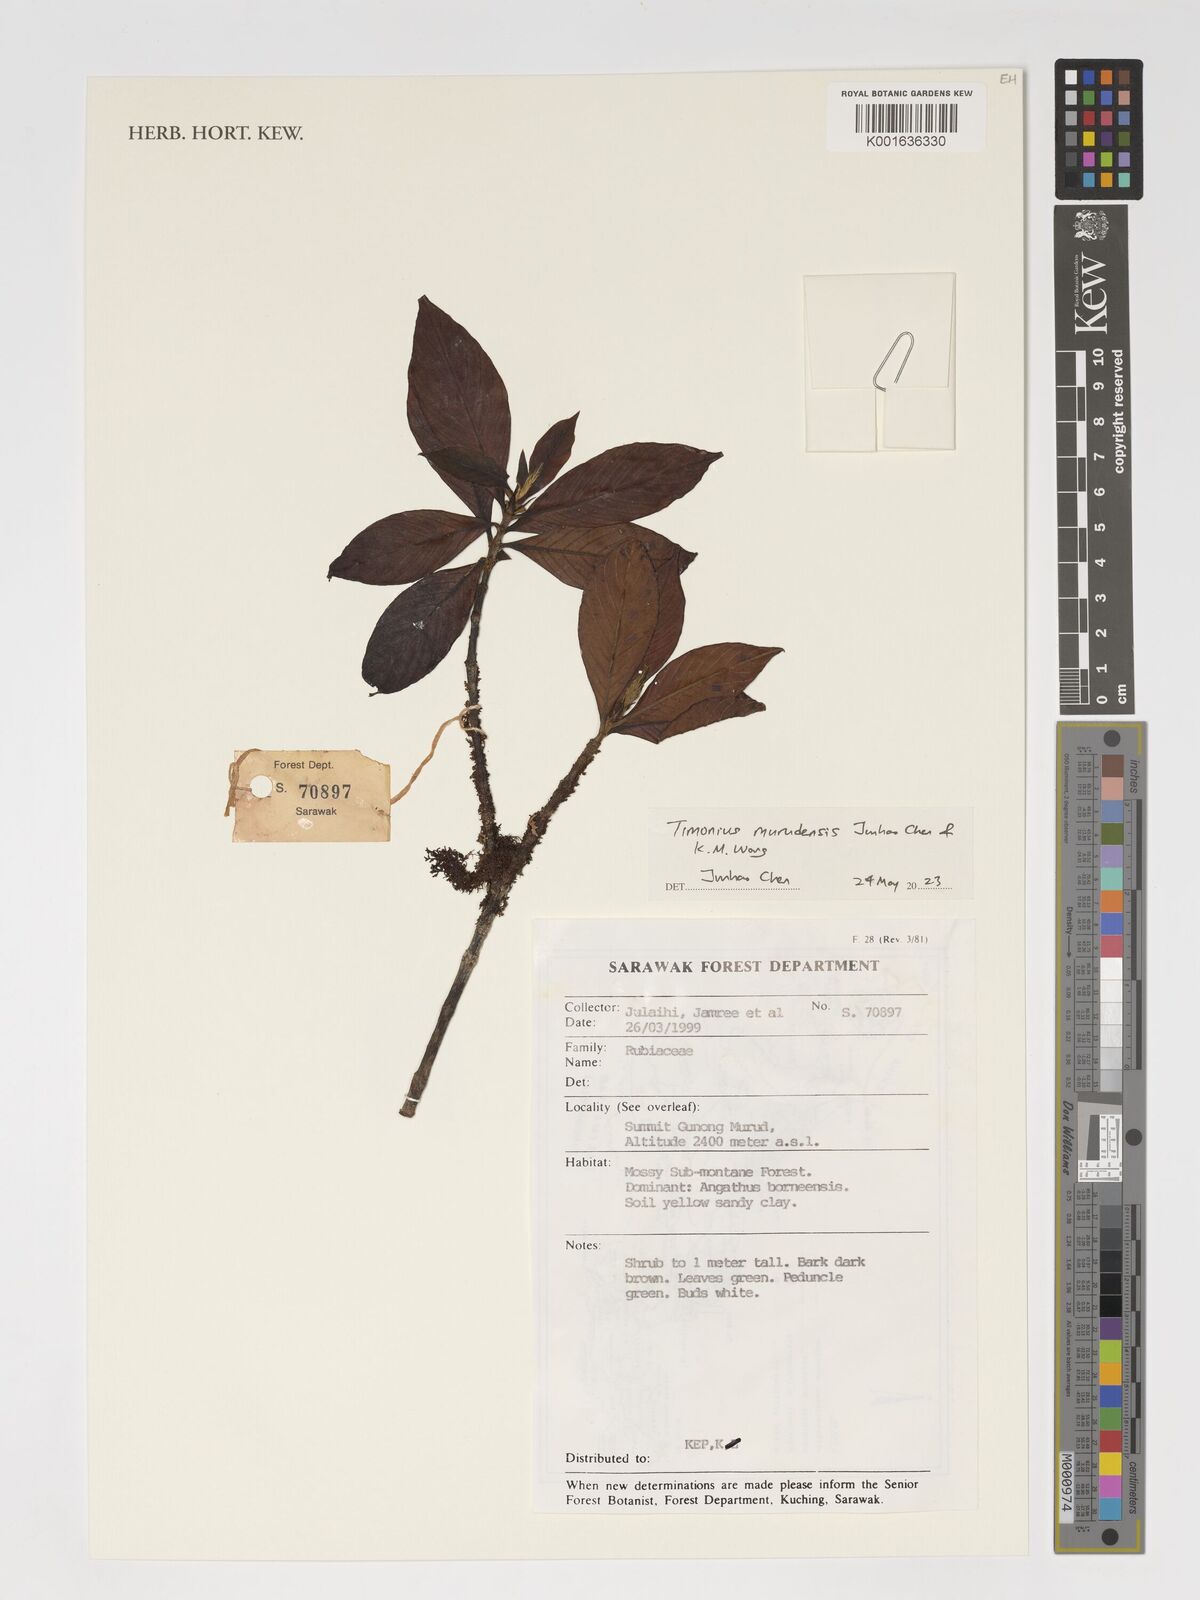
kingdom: Plantae
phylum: Tracheophyta
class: Magnoliopsida
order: Gentianales
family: Rubiaceae
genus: Timonius
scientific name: Timonius
